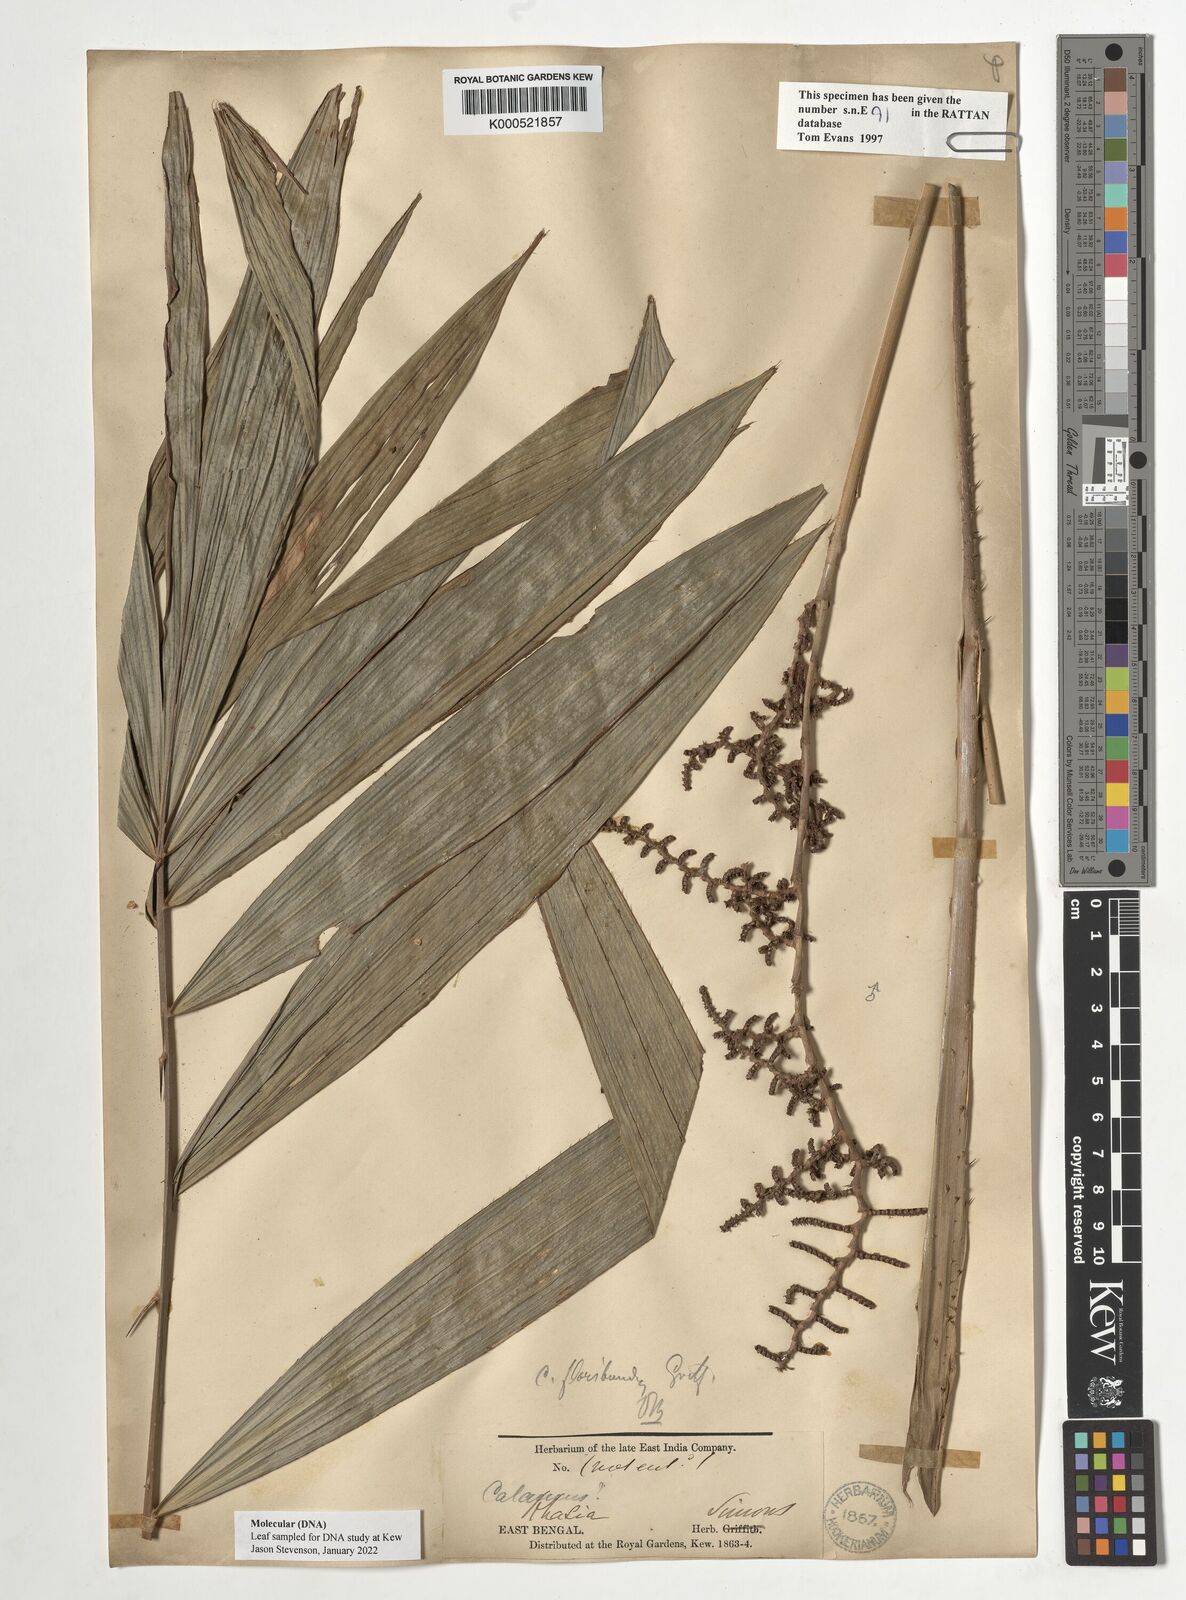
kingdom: Plantae
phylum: Tracheophyta
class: Liliopsida
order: Arecales
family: Arecaceae
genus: Calamus
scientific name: Calamus floribundus
